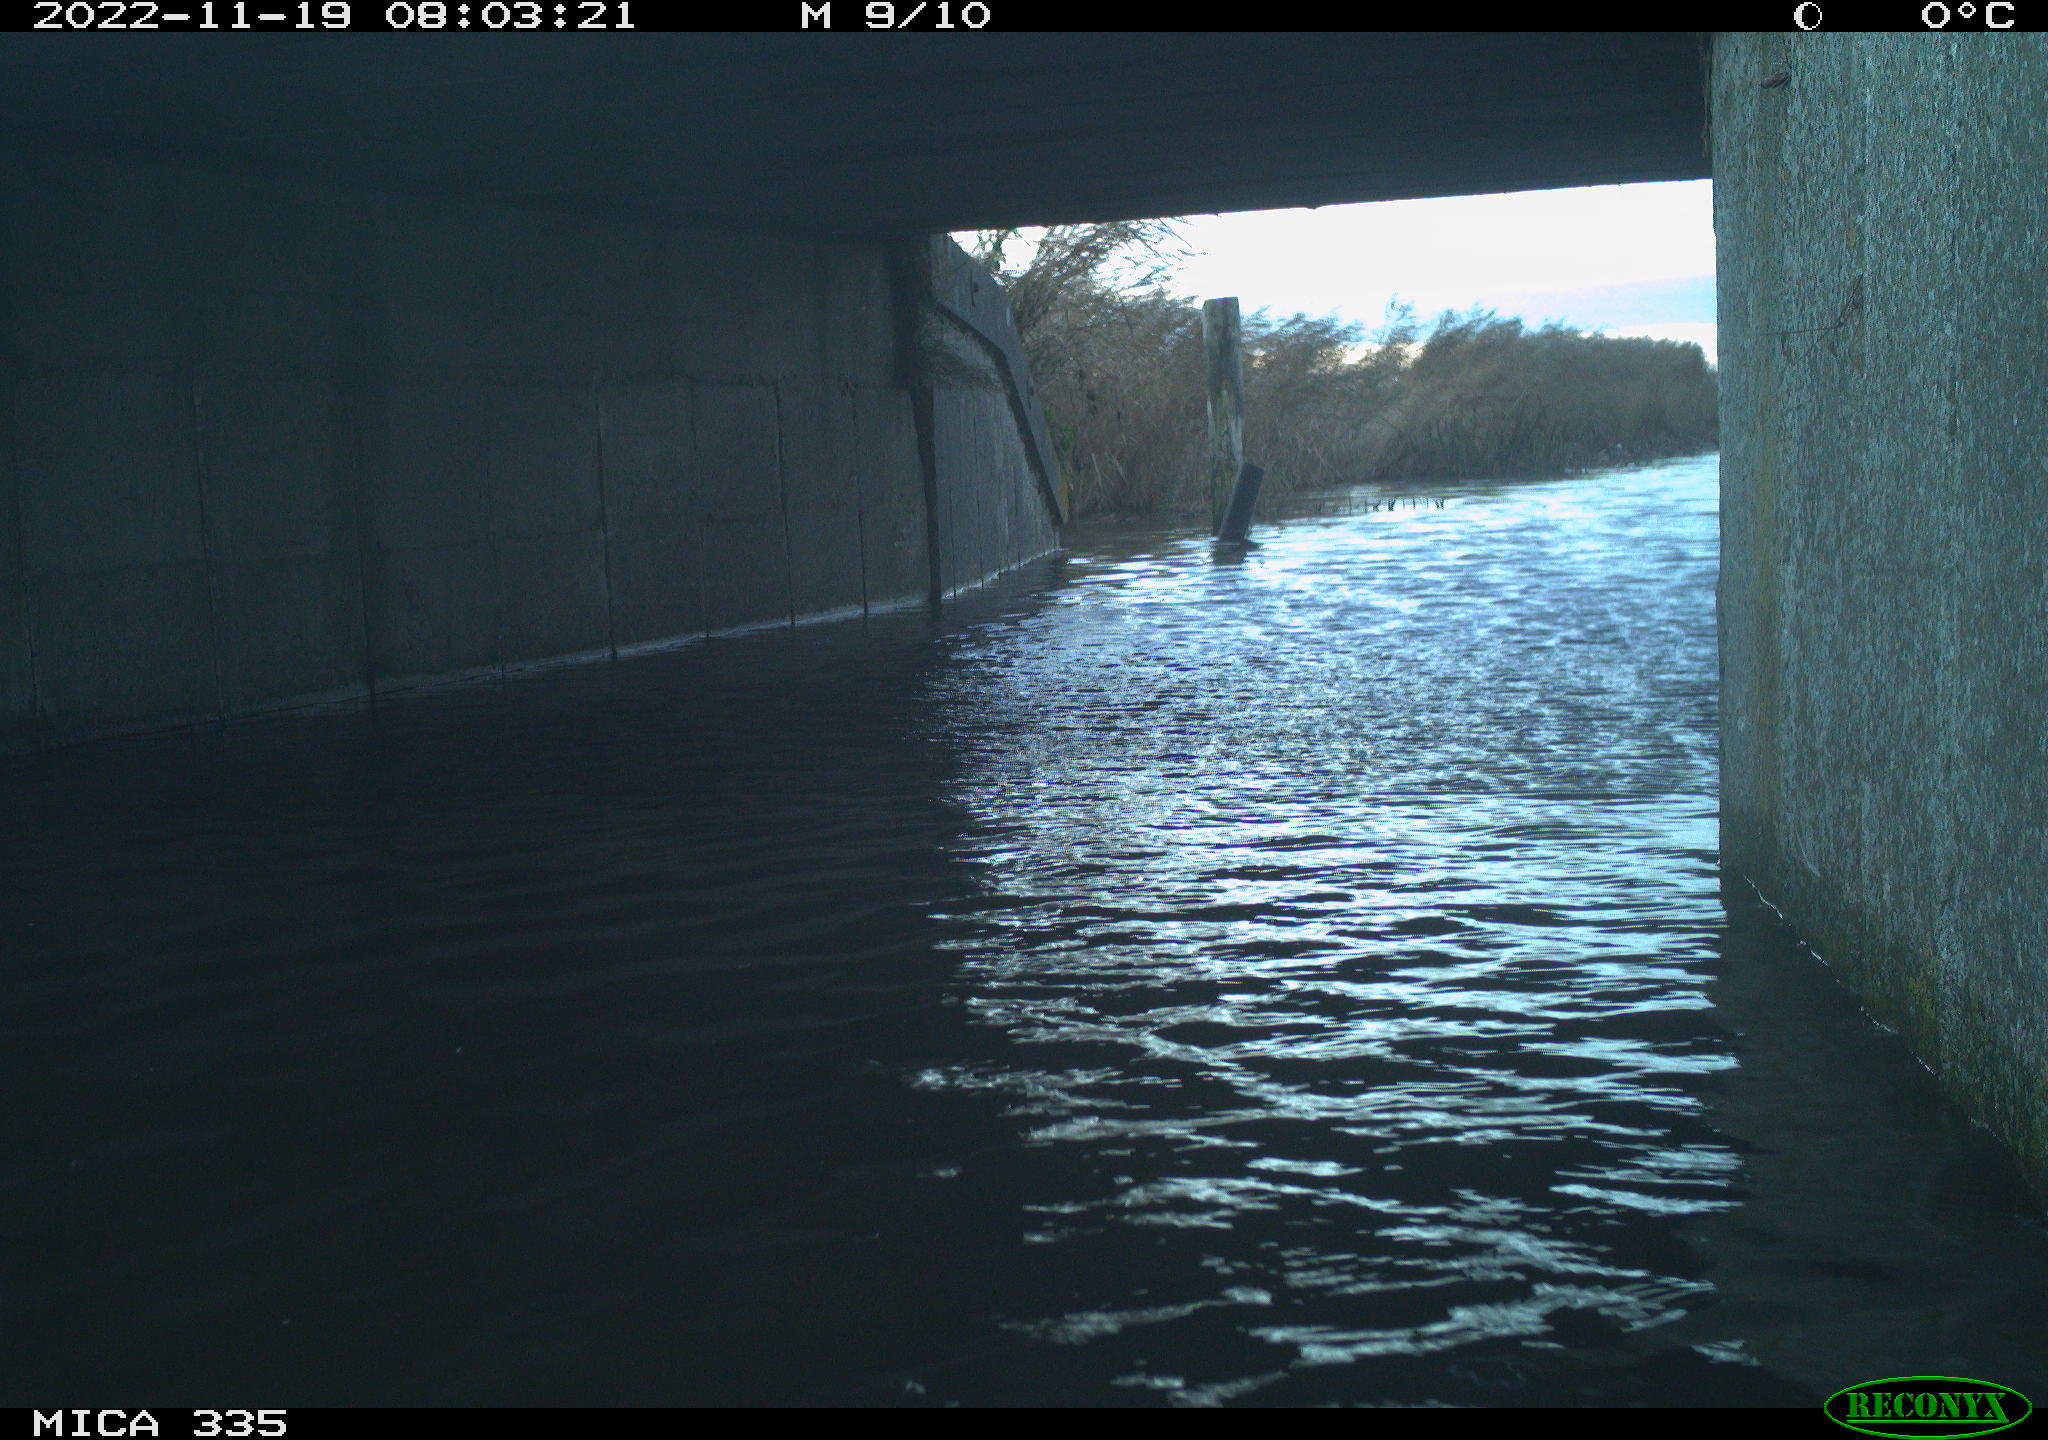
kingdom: Animalia
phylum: Chordata
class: Aves
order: Anseriformes
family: Anatidae
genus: Anas
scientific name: Anas
